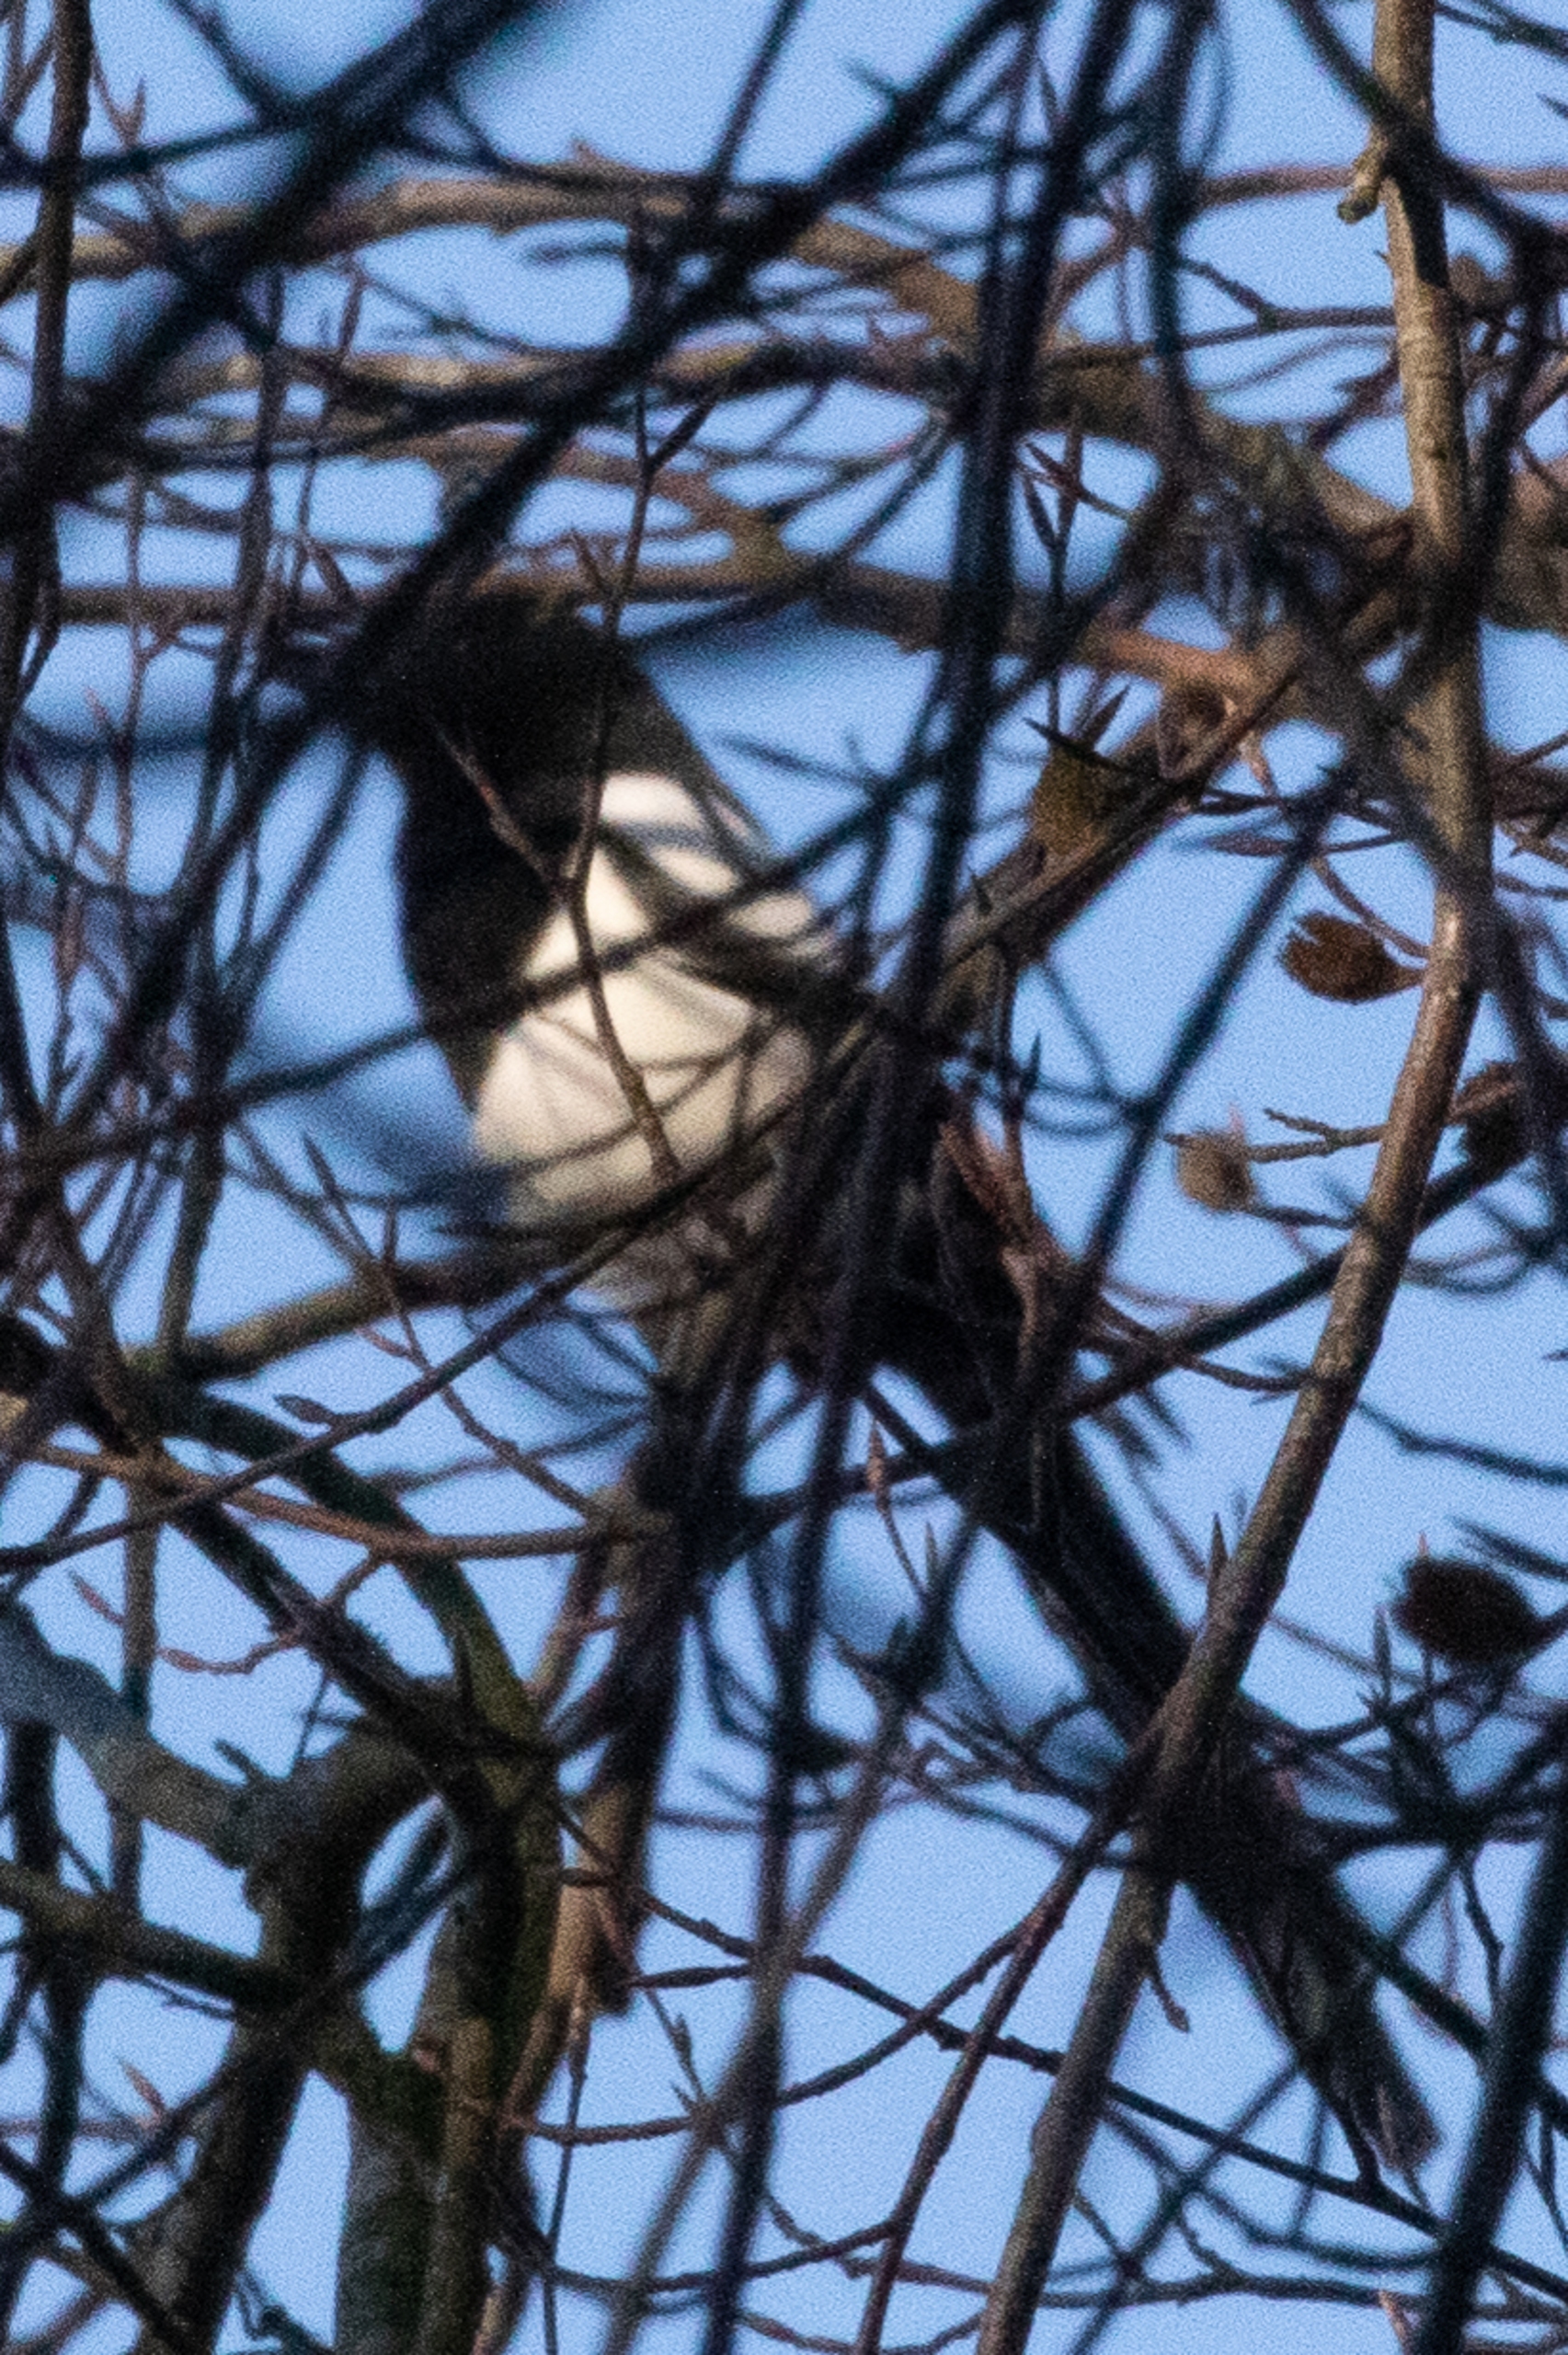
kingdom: Animalia
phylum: Chordata
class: Aves
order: Passeriformes
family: Corvidae
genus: Pica
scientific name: Pica pica
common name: Husskade
